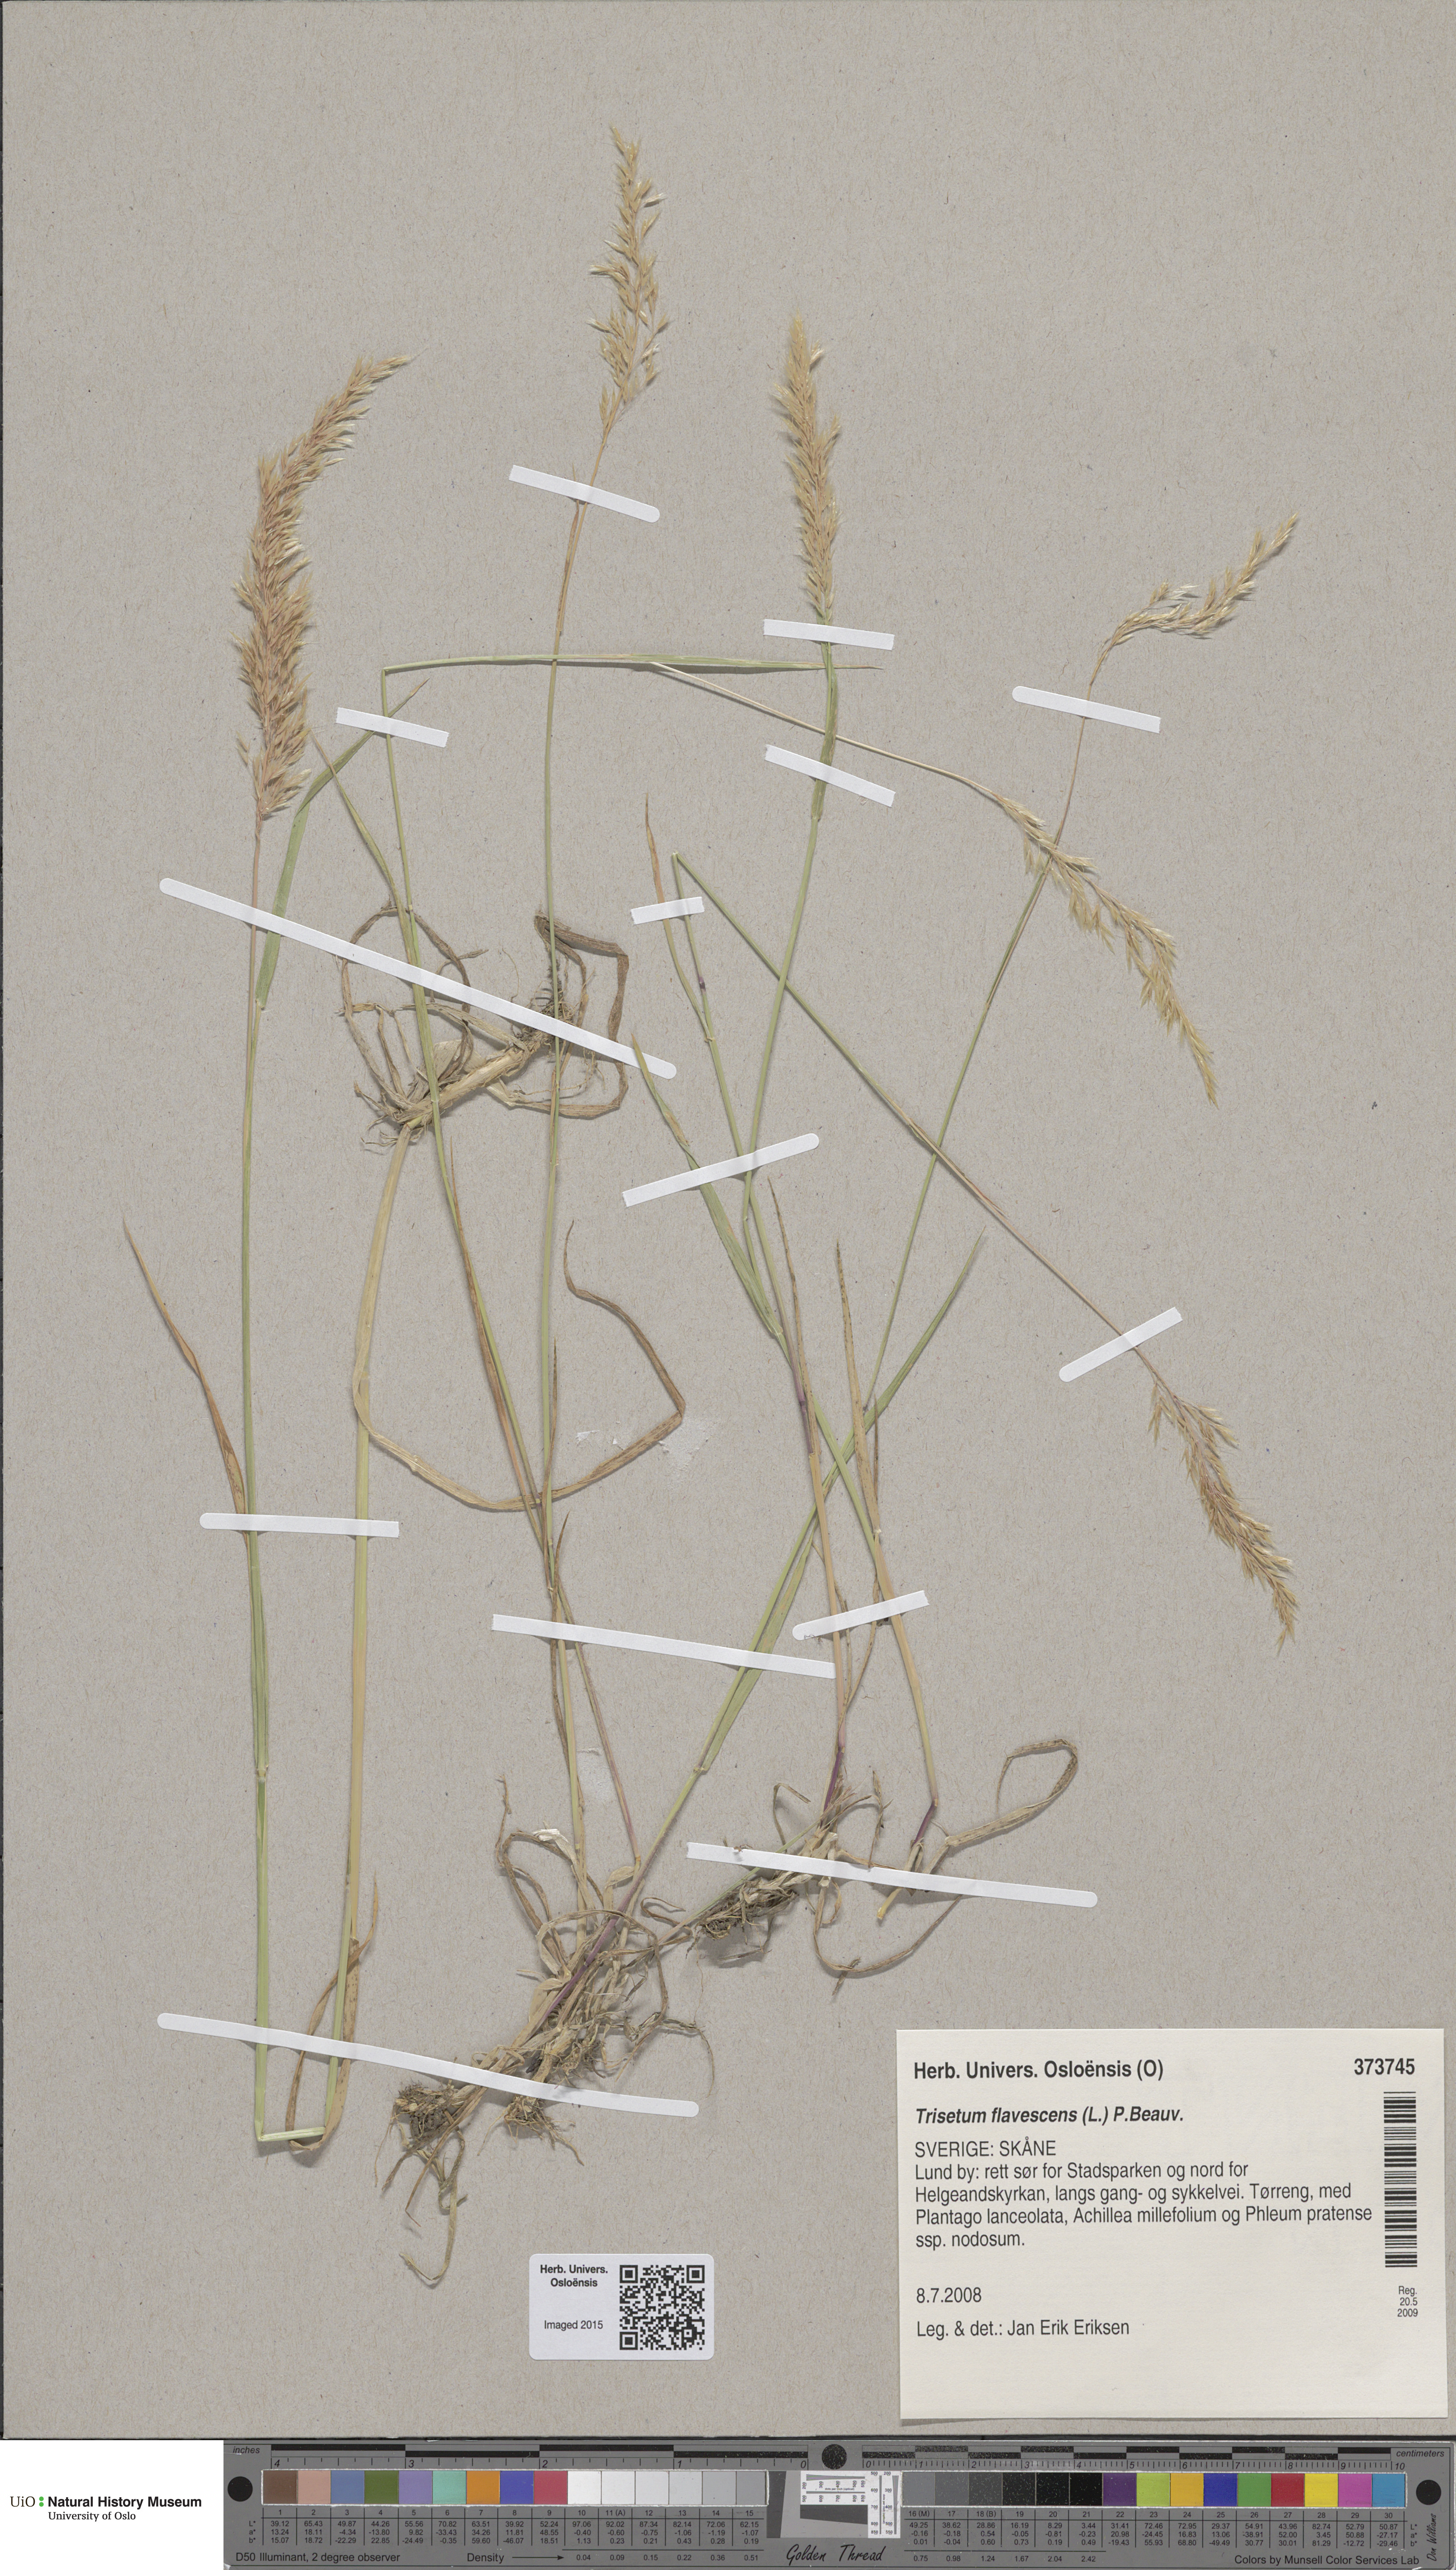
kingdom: Plantae
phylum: Tracheophyta
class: Liliopsida
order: Poales
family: Poaceae
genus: Trisetum
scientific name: Trisetum flavescens
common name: Yellow oat-grass
